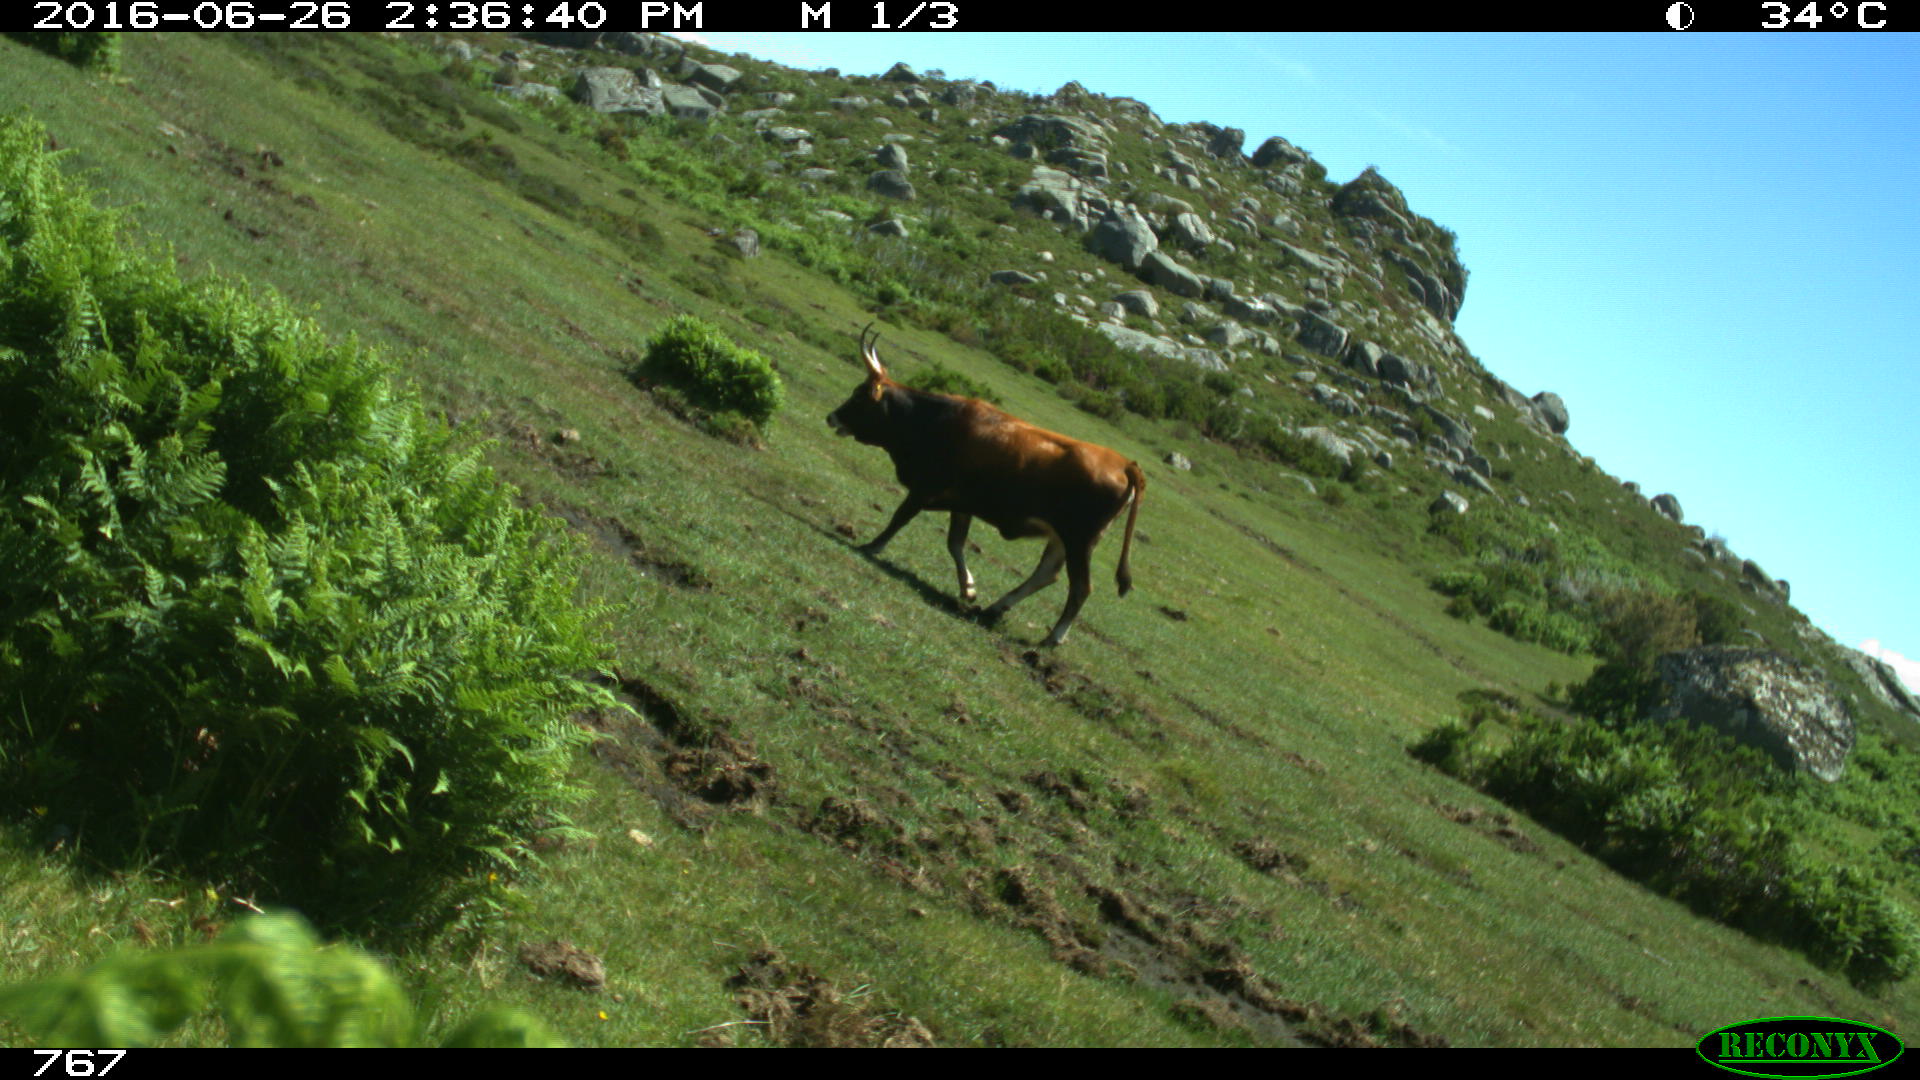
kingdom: Animalia
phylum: Chordata
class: Mammalia
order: Artiodactyla
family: Bovidae
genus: Bos
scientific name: Bos taurus
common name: Domesticated cattle
